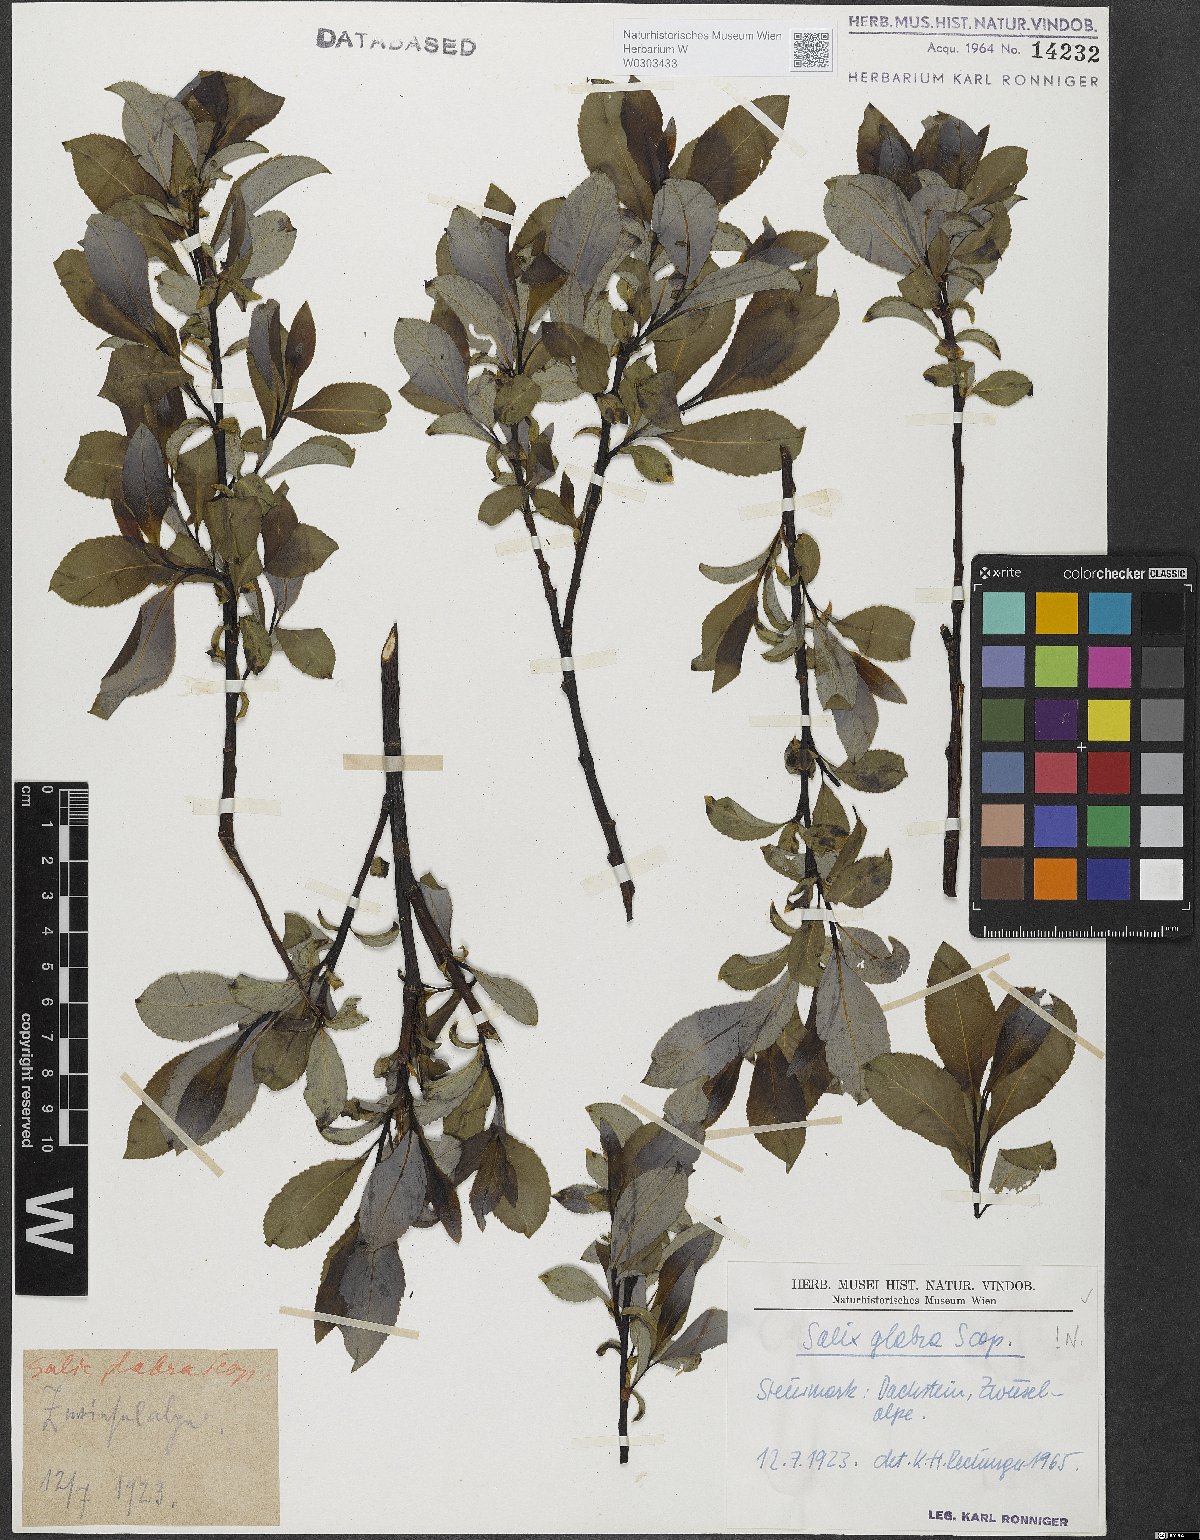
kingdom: Plantae
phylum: Tracheophyta
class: Magnoliopsida
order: Malpighiales
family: Salicaceae
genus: Salix
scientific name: Salix glabra
